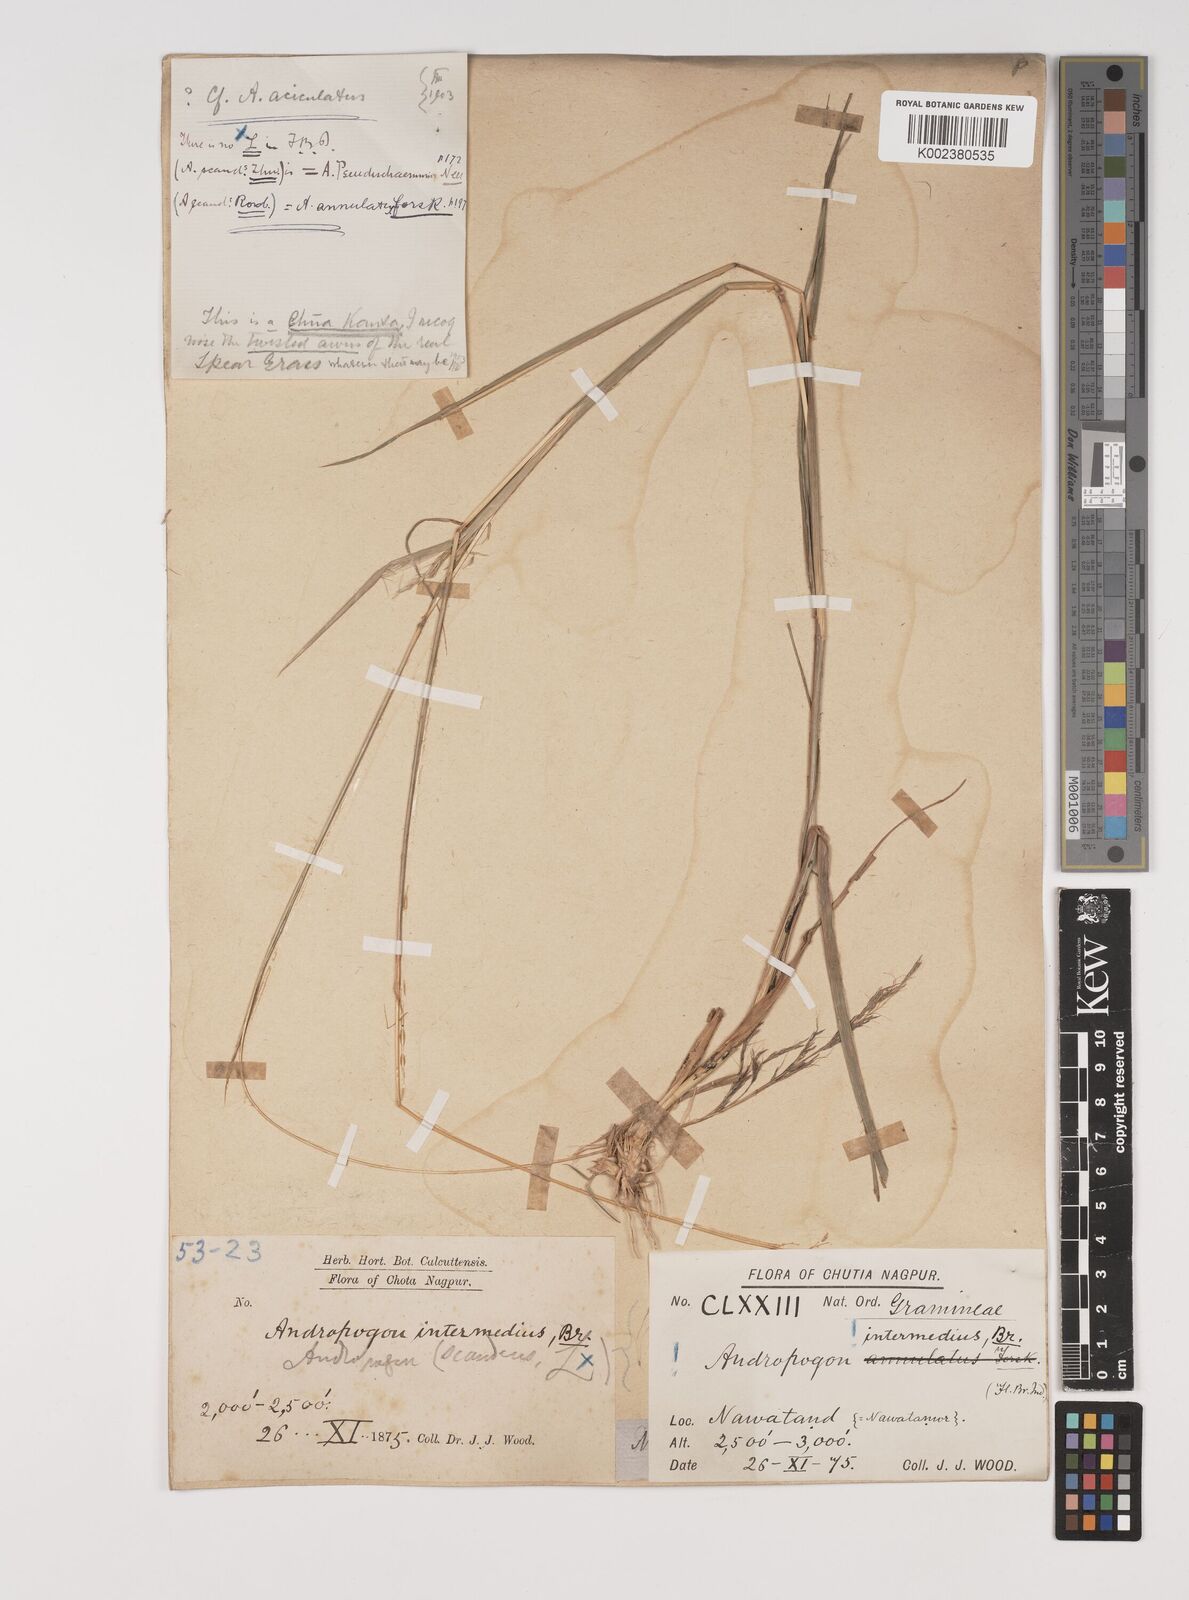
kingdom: Plantae
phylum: Tracheophyta
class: Liliopsida
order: Poales
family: Poaceae
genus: Bothriochloa
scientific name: Bothriochloa bladhii
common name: Caucasian bluestem
